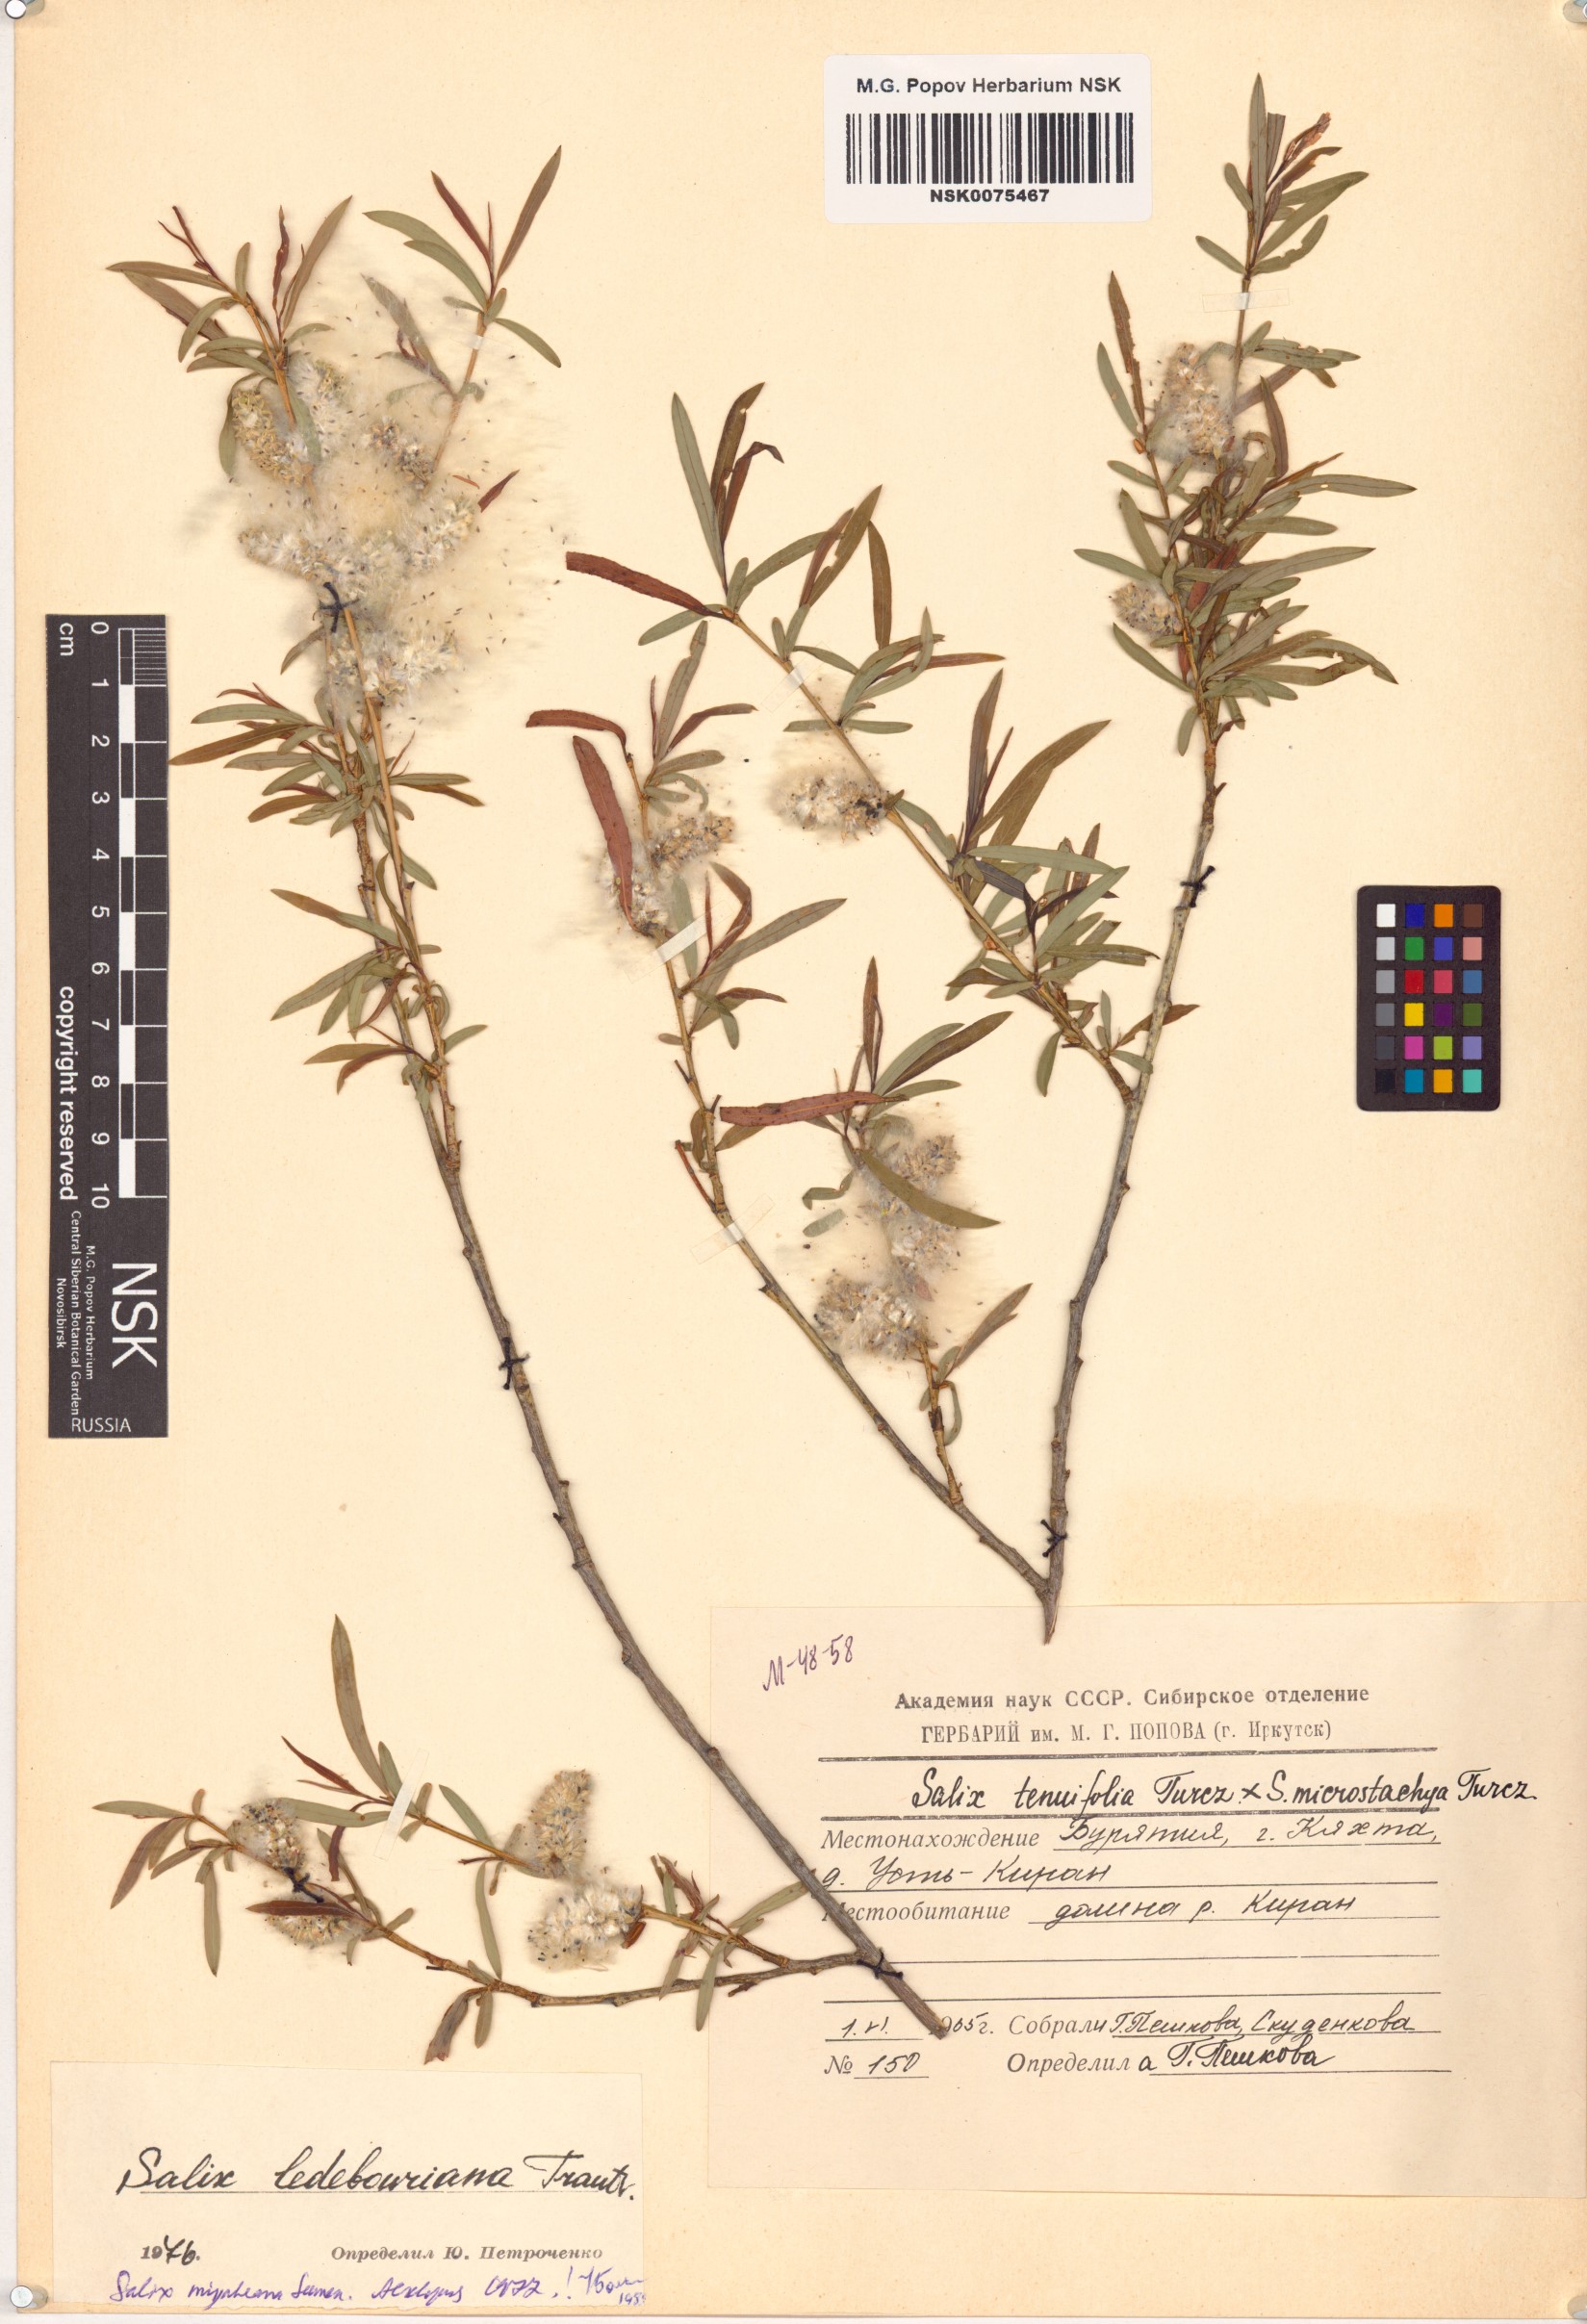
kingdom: Plantae
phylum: Tracheophyta
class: Magnoliopsida
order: Malpighiales
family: Salicaceae
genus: Salix
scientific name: Salix miyabeana
